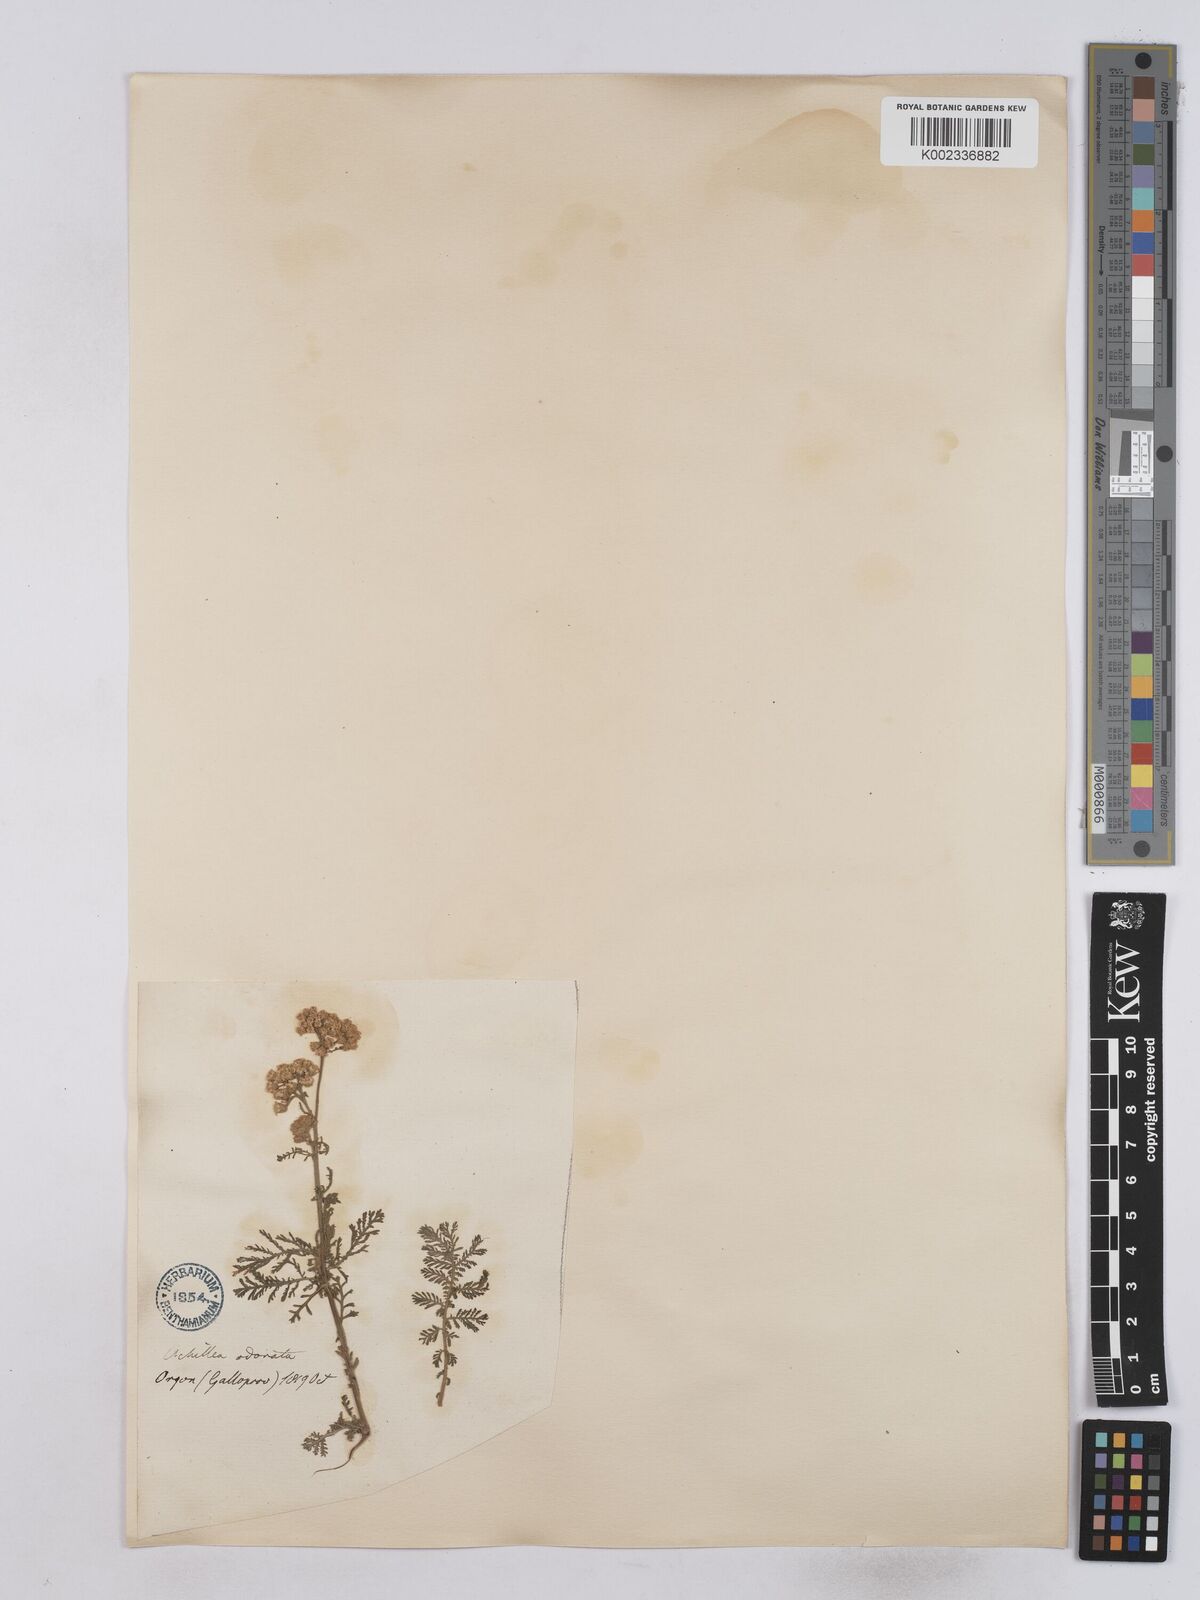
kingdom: Plantae
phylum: Tracheophyta
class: Magnoliopsida
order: Asterales
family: Asteraceae
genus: Achillea
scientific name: Achillea odorata
